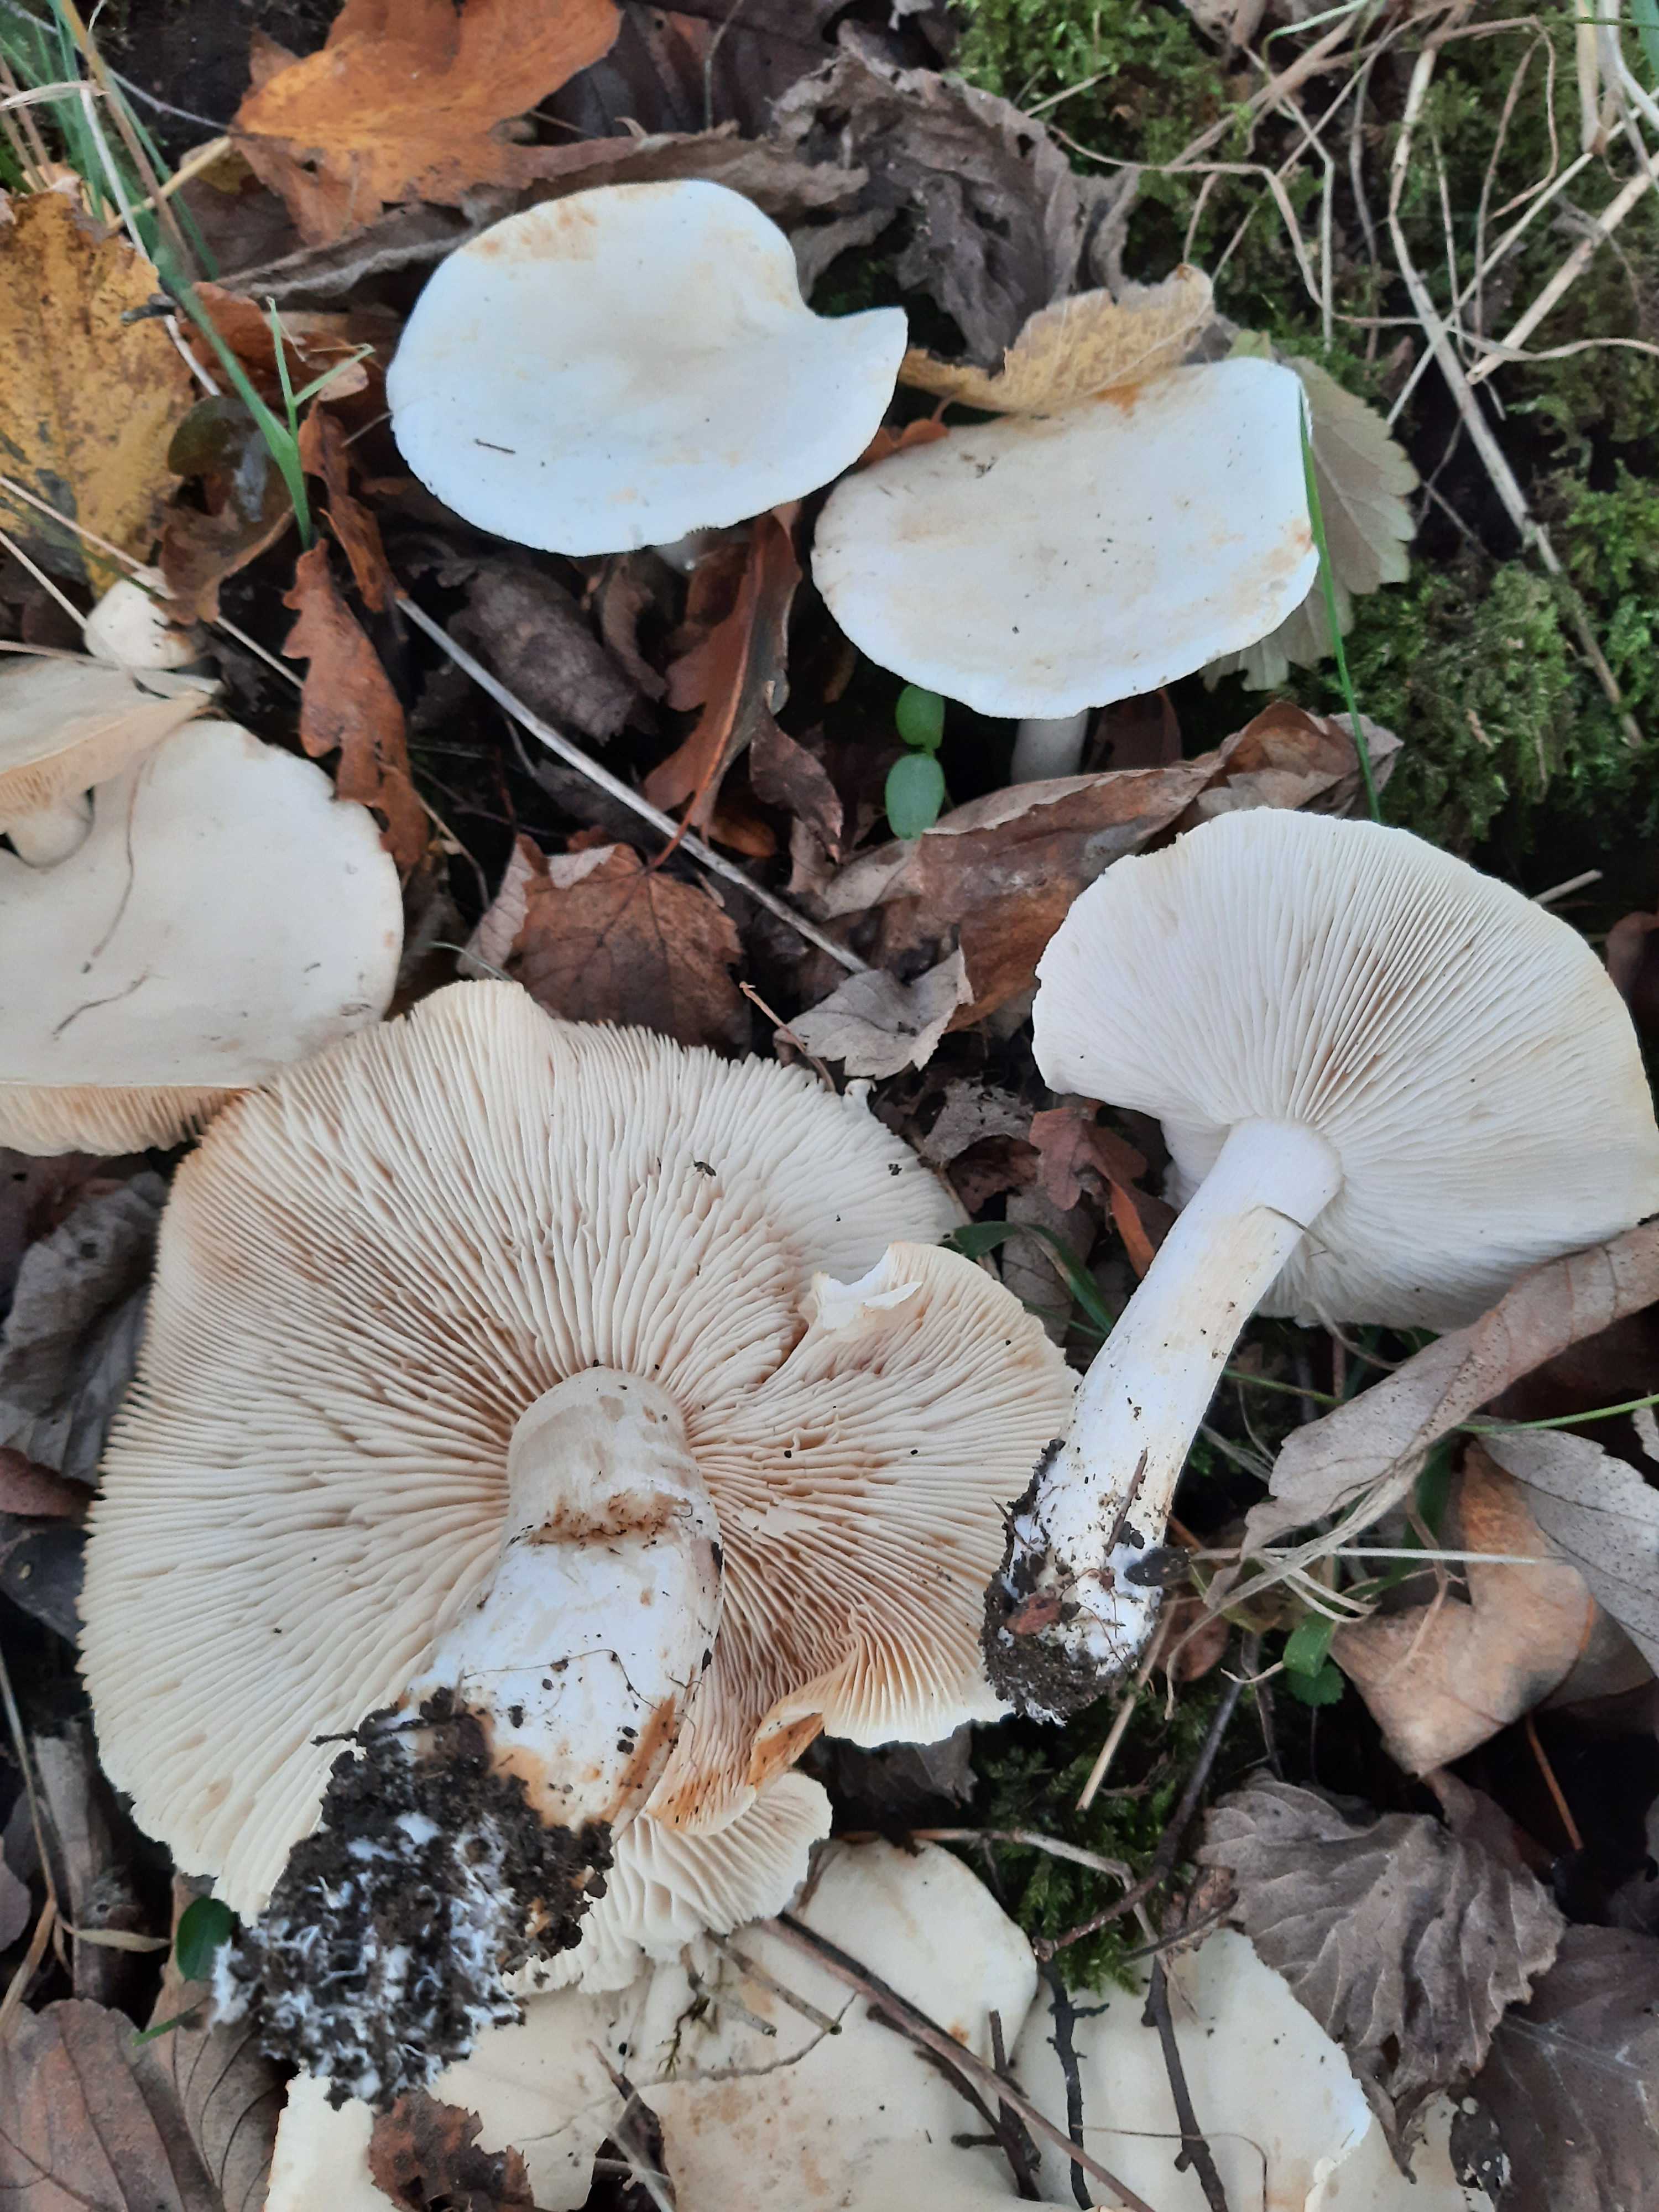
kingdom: Fungi
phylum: Basidiomycota
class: Agaricomycetes
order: Agaricales
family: Tricholomataceae
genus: Tricholoma
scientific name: Tricholoma stiparophyllum
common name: hvid ridderhat
